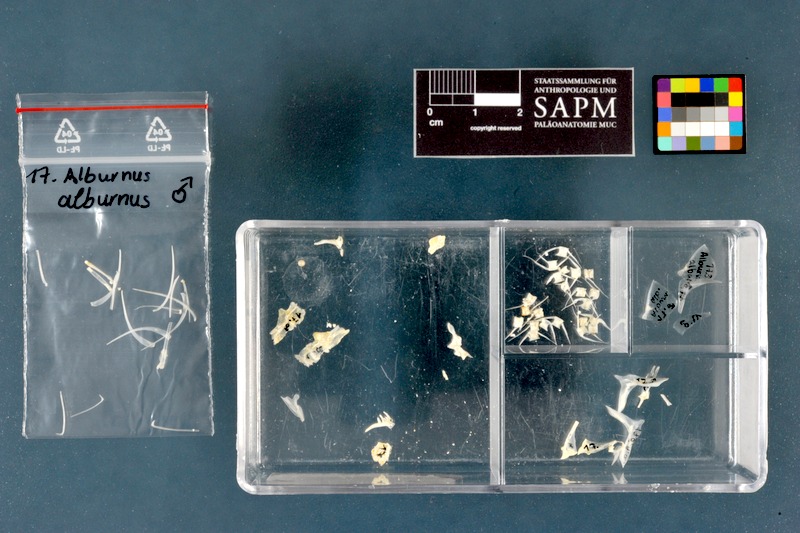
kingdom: Animalia
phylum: Chordata
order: Cypriniformes
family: Cyprinidae
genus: Alburnus
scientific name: Alburnus alburnus
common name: Bleak
